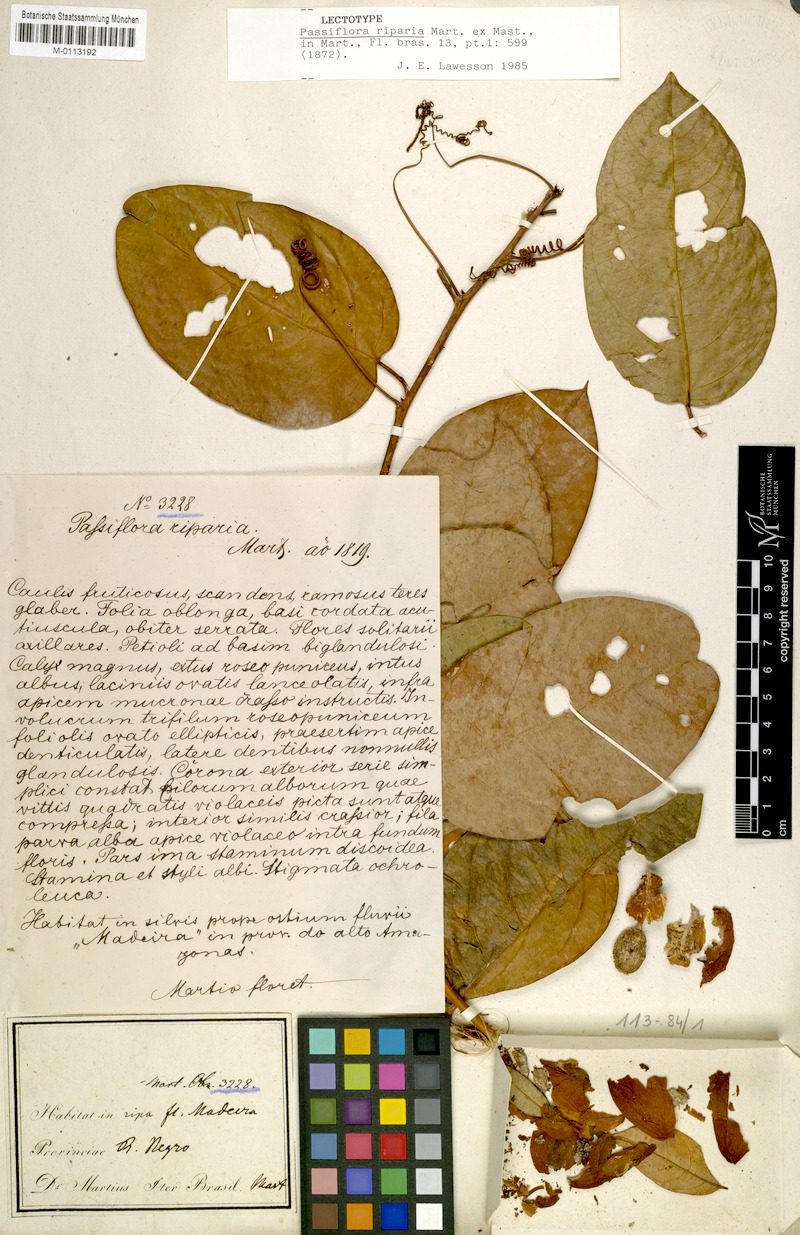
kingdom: Plantae
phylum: Tracheophyta
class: Magnoliopsida
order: Malpighiales
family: Passifloraceae
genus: Passiflora
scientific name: Passiflora riparia
